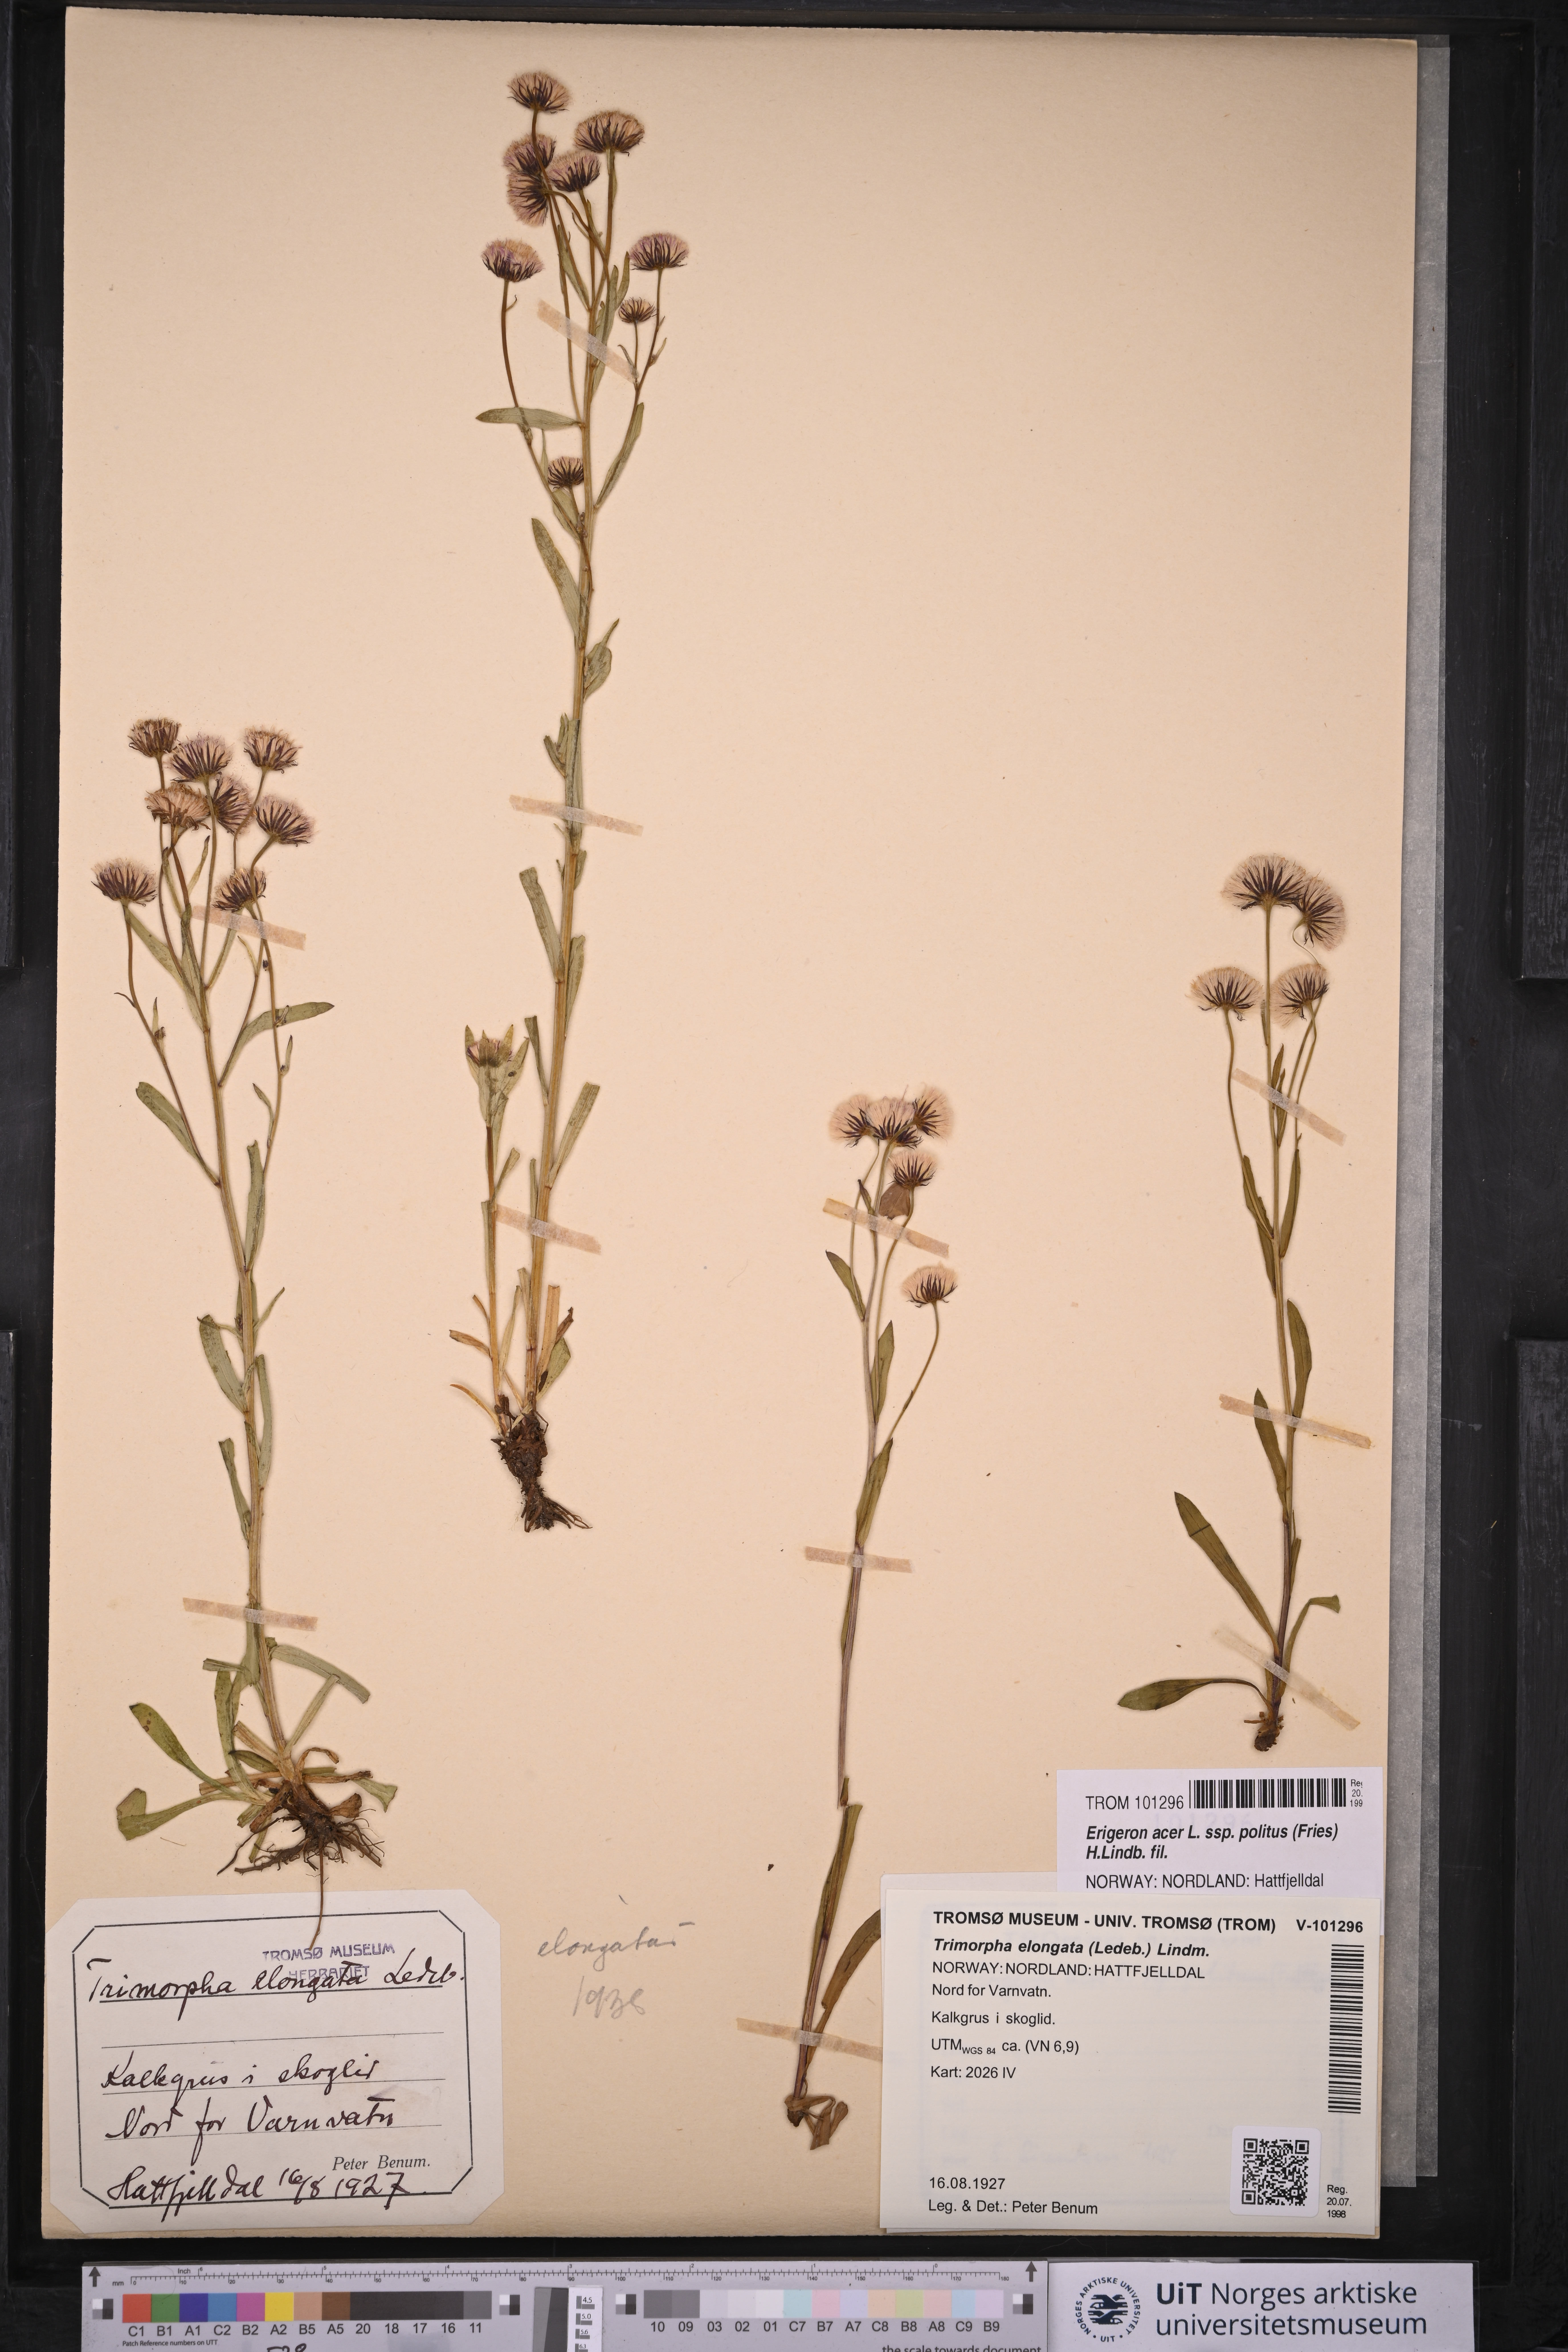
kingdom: Plantae
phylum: Tracheophyta
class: Magnoliopsida
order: Asterales
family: Asteraceae
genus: Erigeron
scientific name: Erigeron politus
